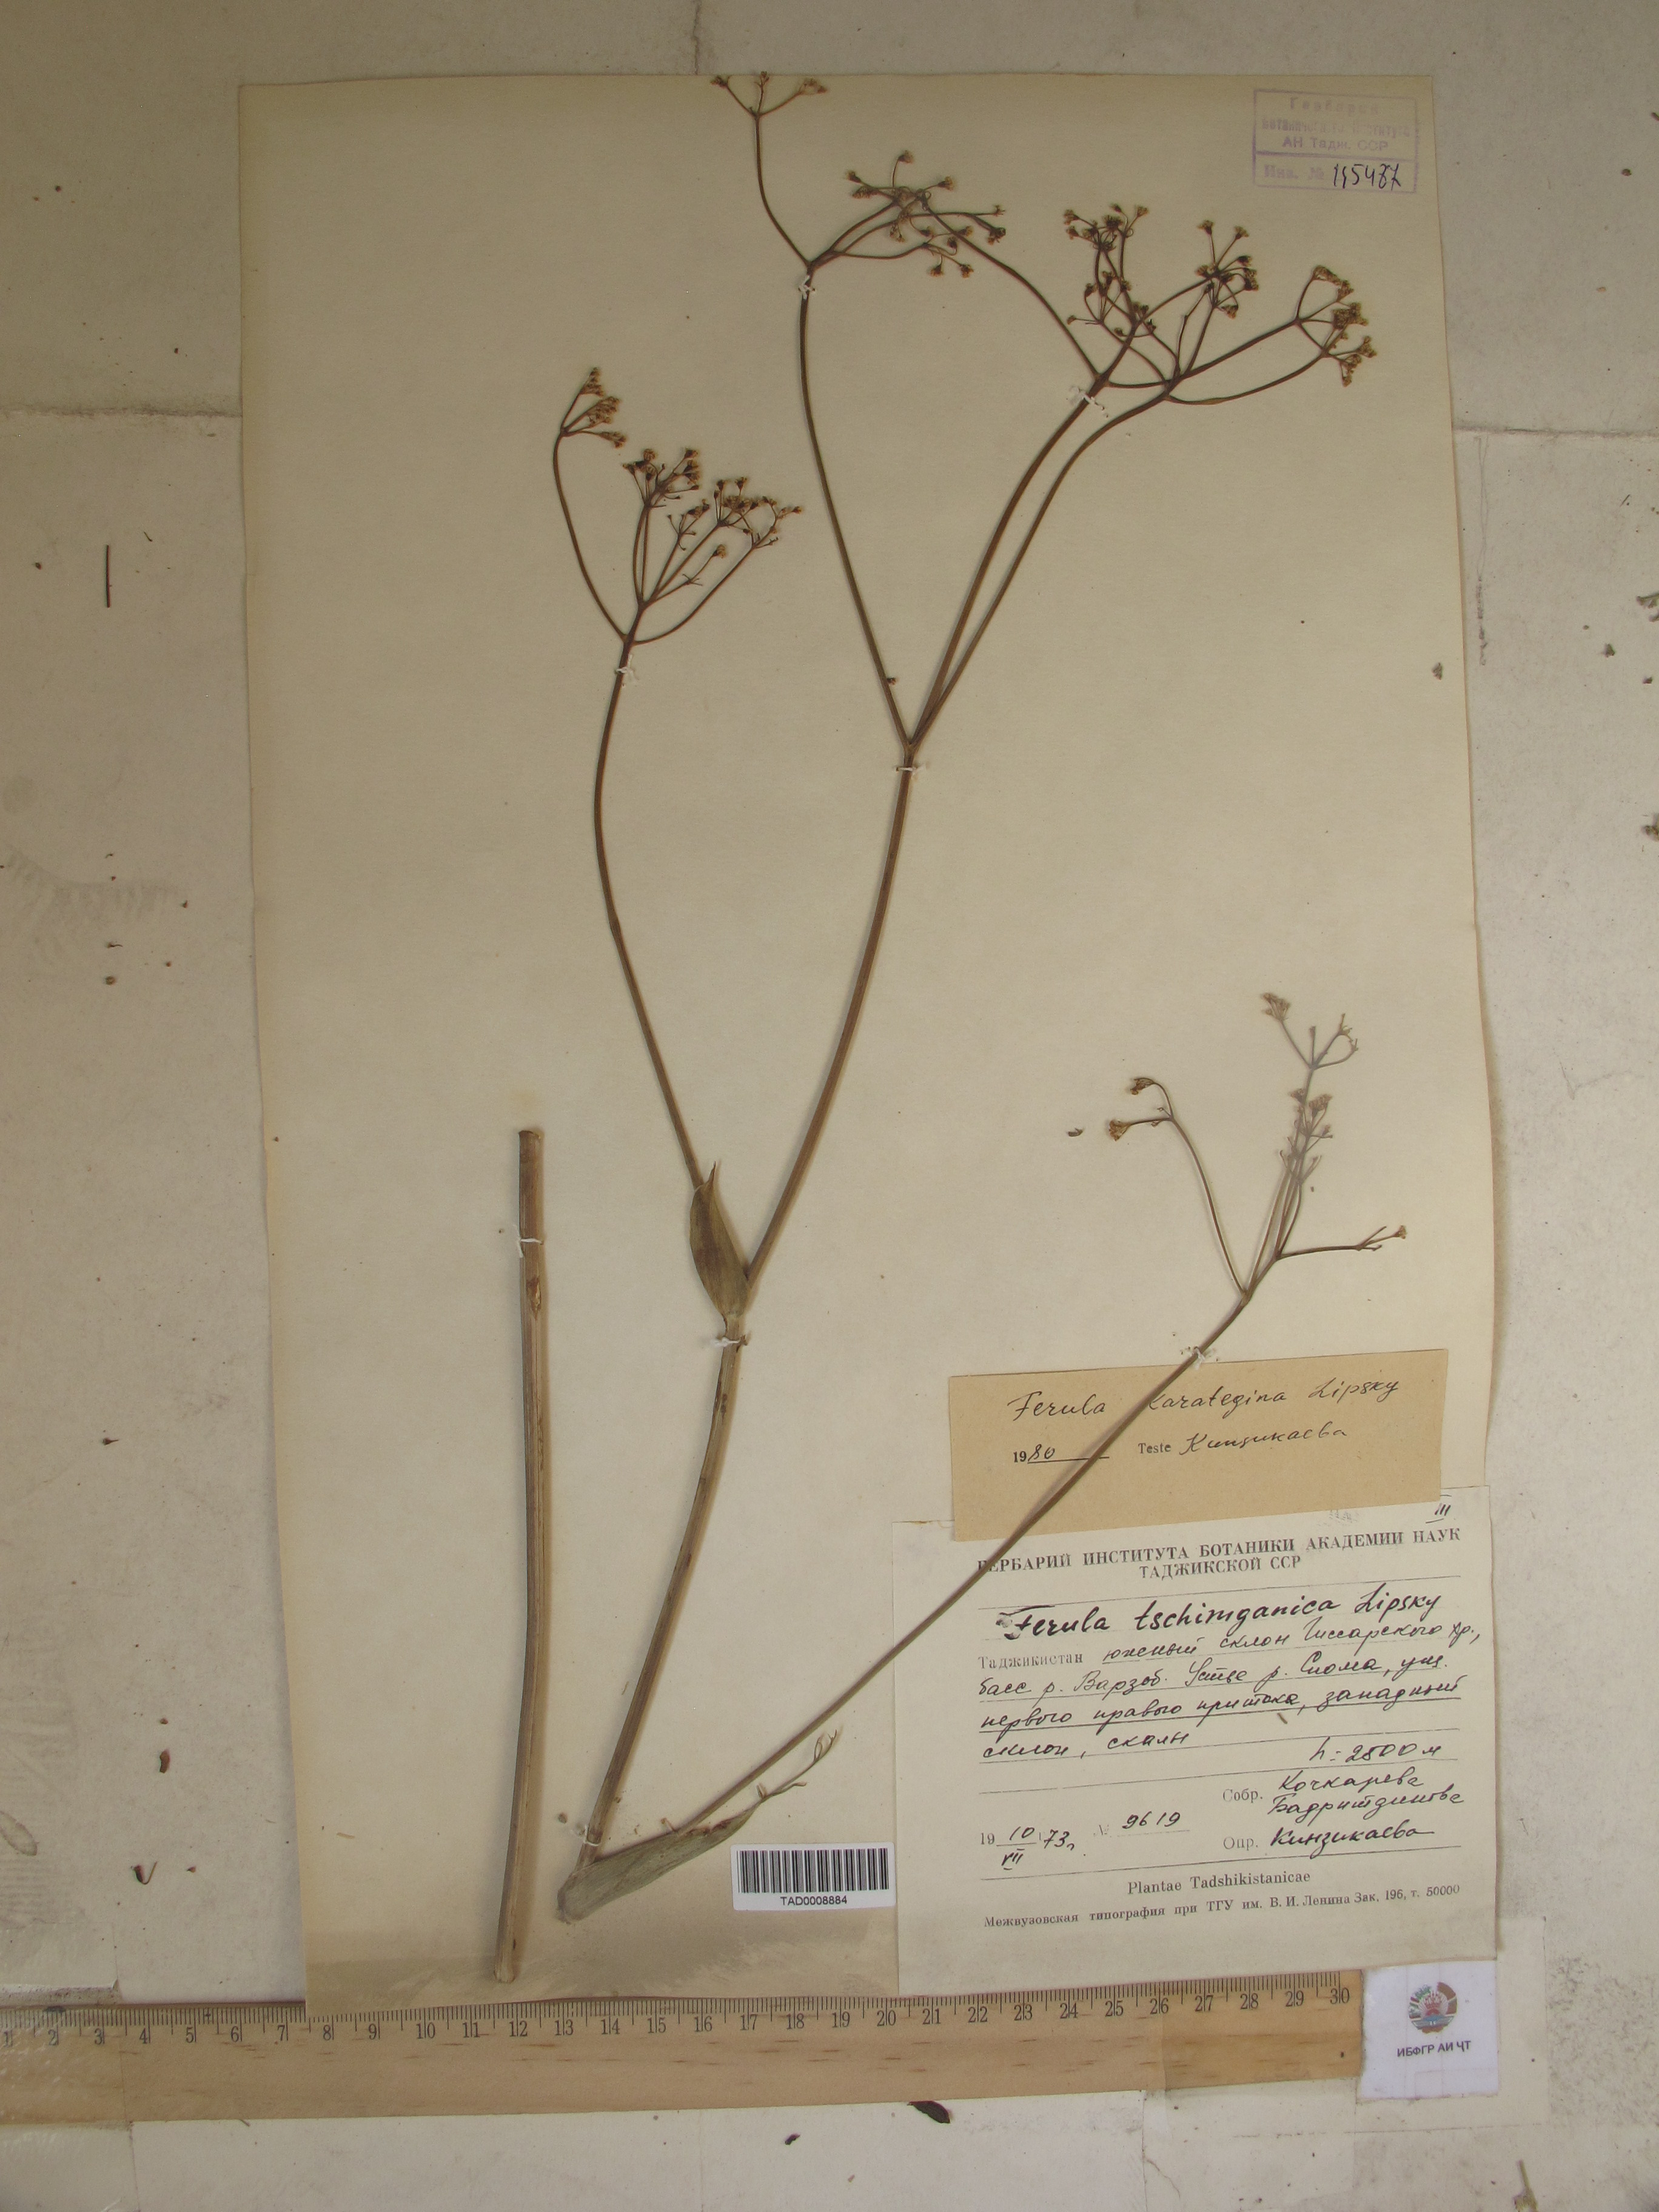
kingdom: Plantae
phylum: Tracheophyta
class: Magnoliopsida
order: Apiales
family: Apiaceae
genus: Ferula
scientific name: Ferula karategina
